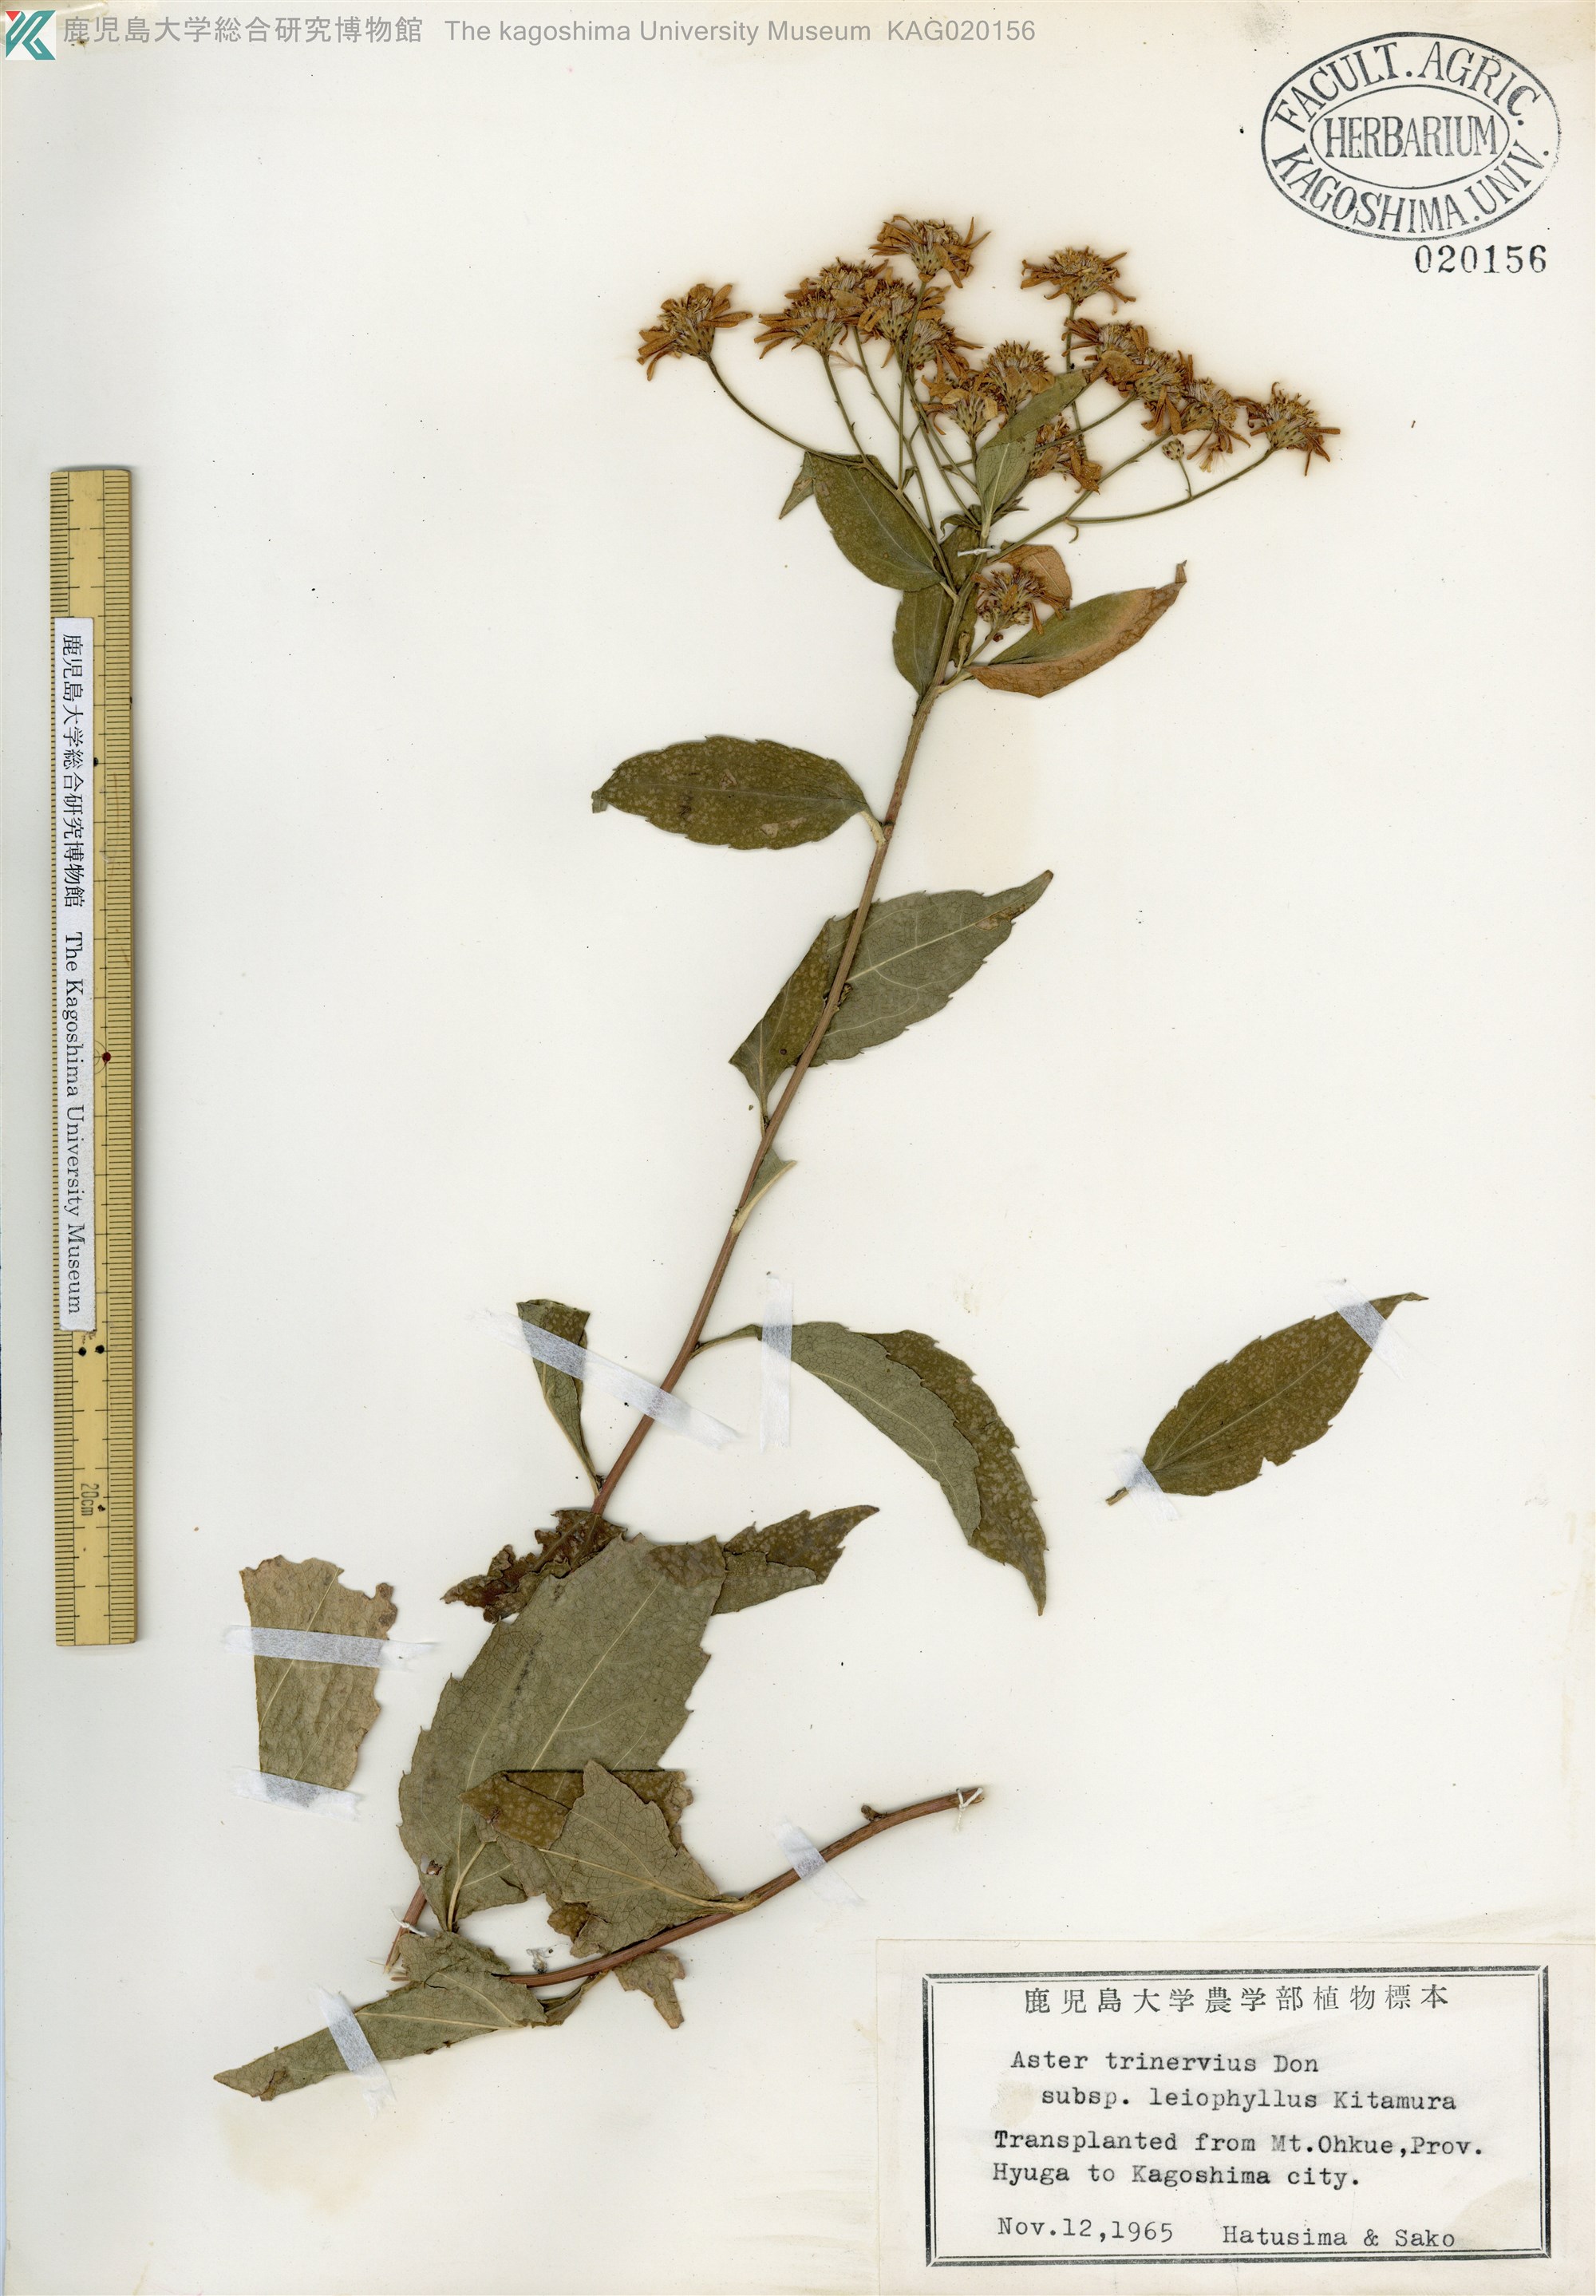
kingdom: Plantae
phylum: Tracheophyta
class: Magnoliopsida
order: Asterales
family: Asteraceae
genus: Aster
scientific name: Aster ageratoides
